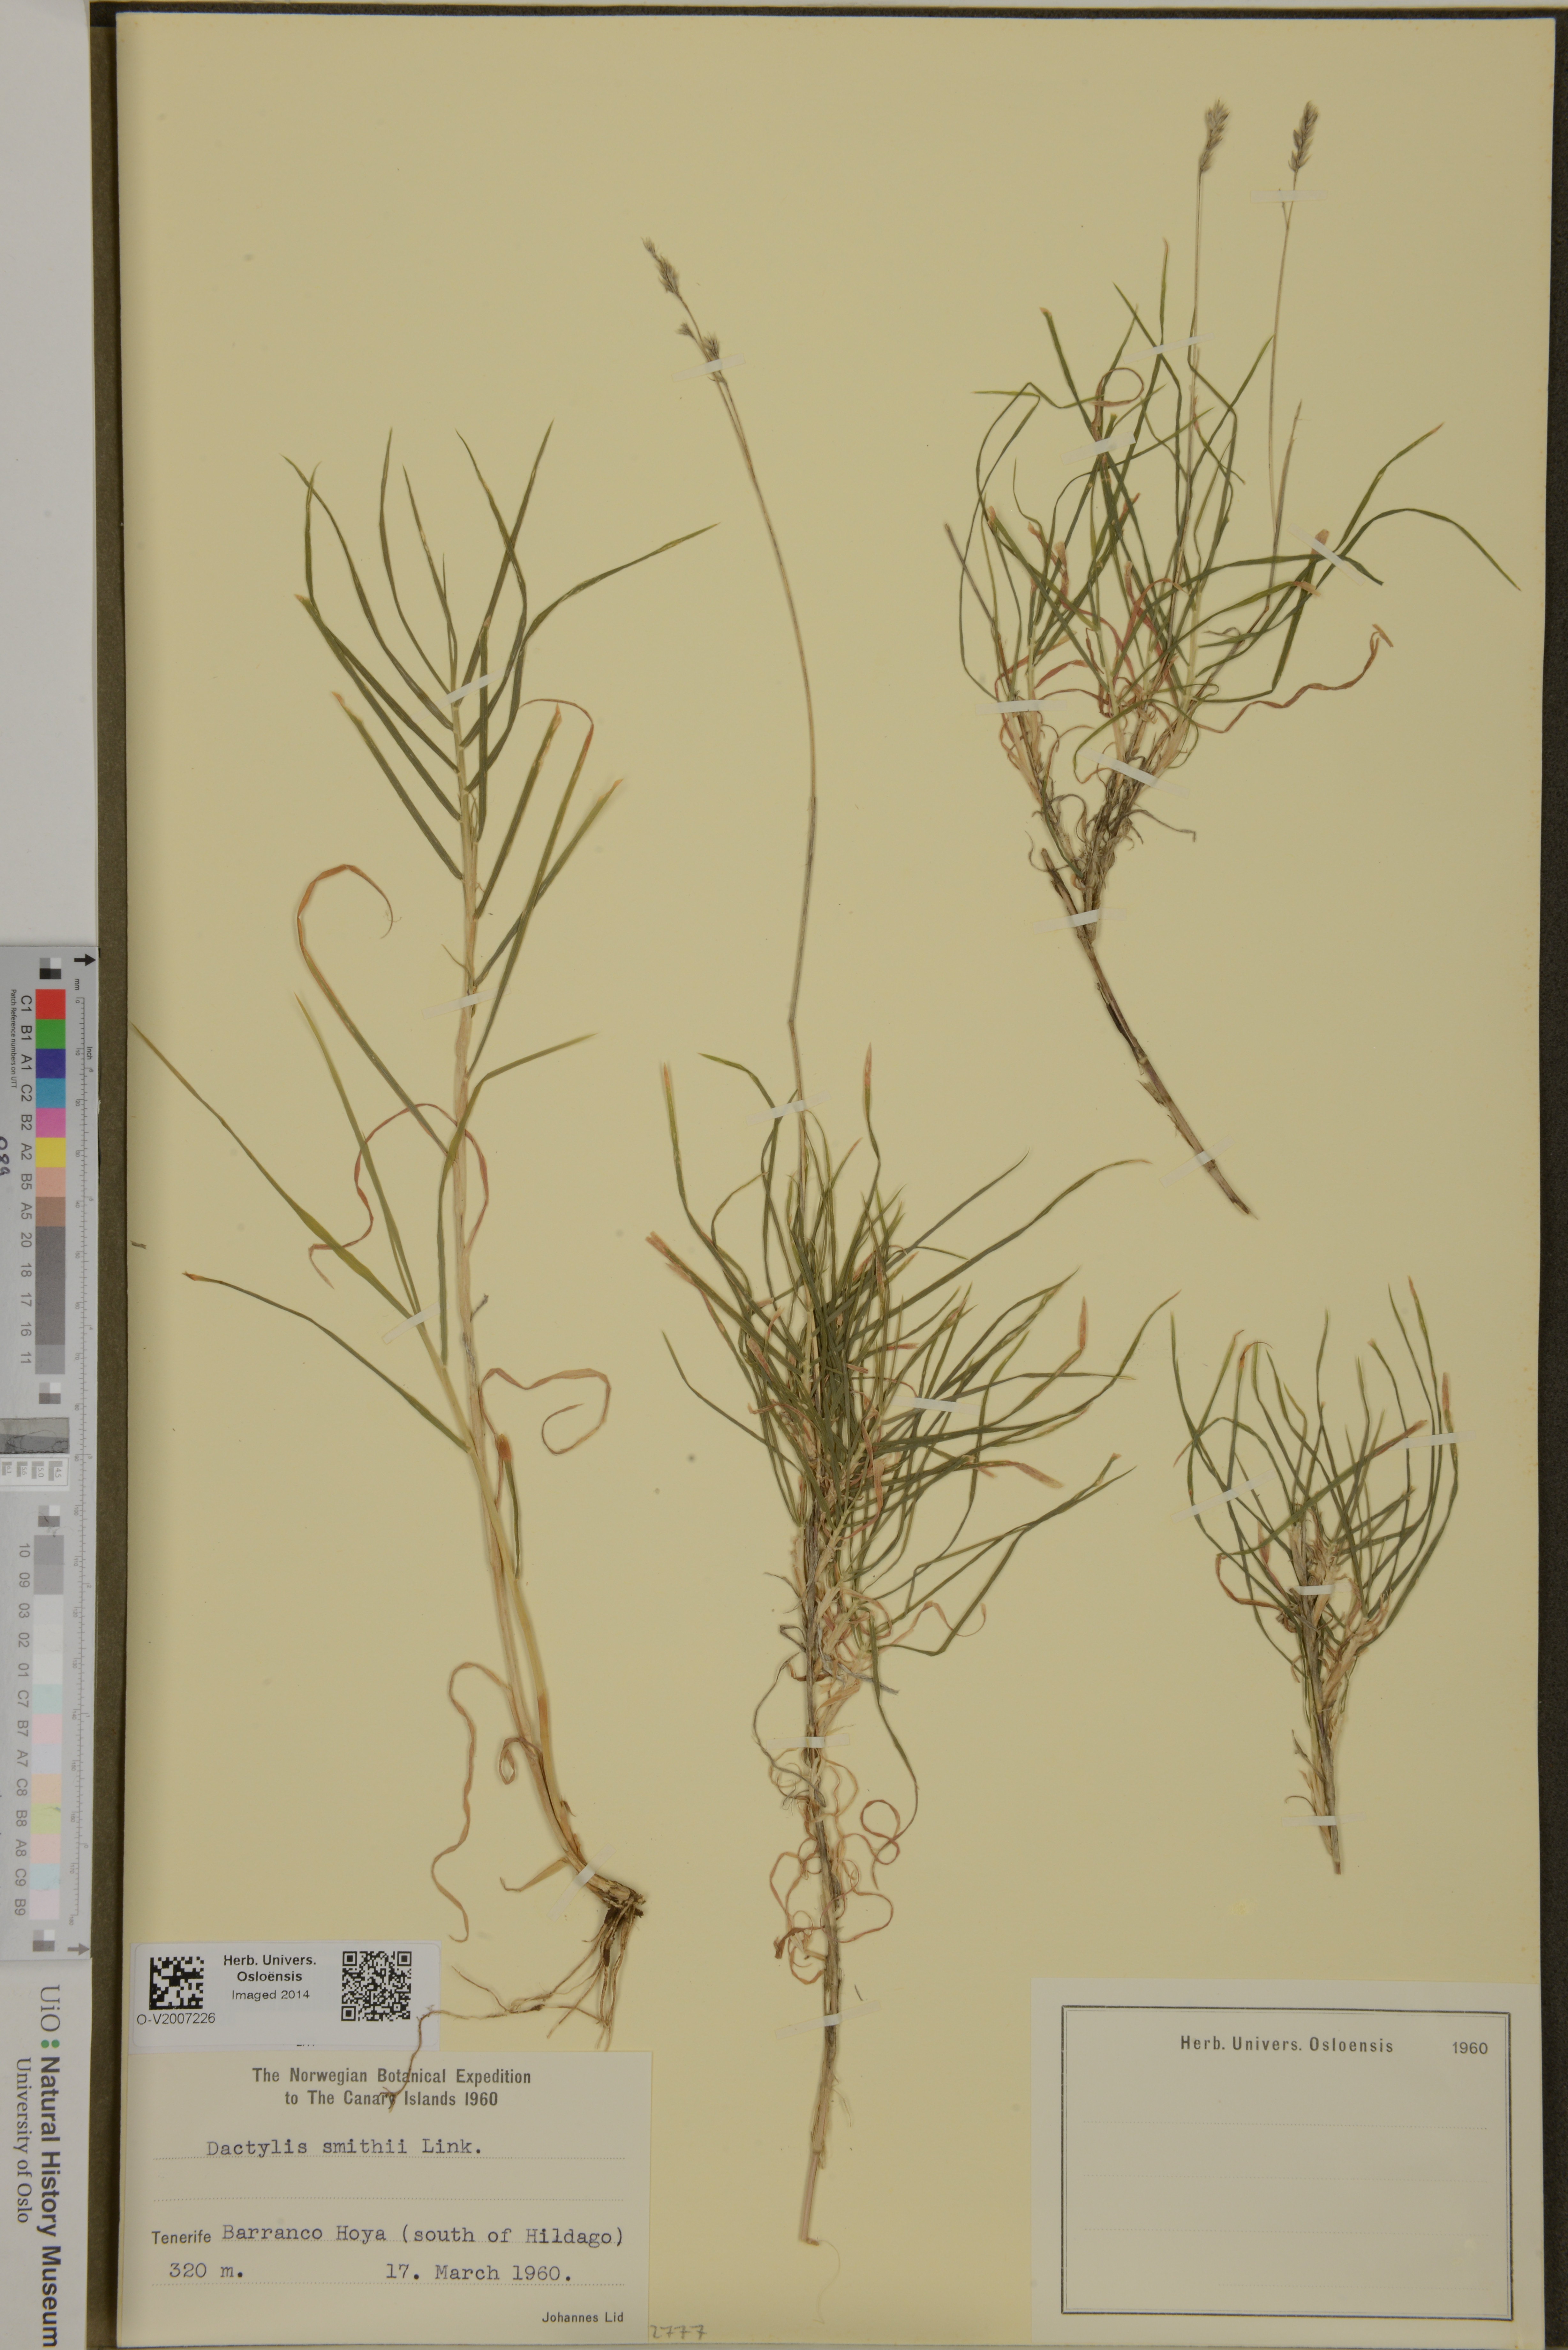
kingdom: Plantae
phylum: Tracheophyta
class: Liliopsida
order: Poales
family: Poaceae
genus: Dactylis
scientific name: Dactylis smithii
